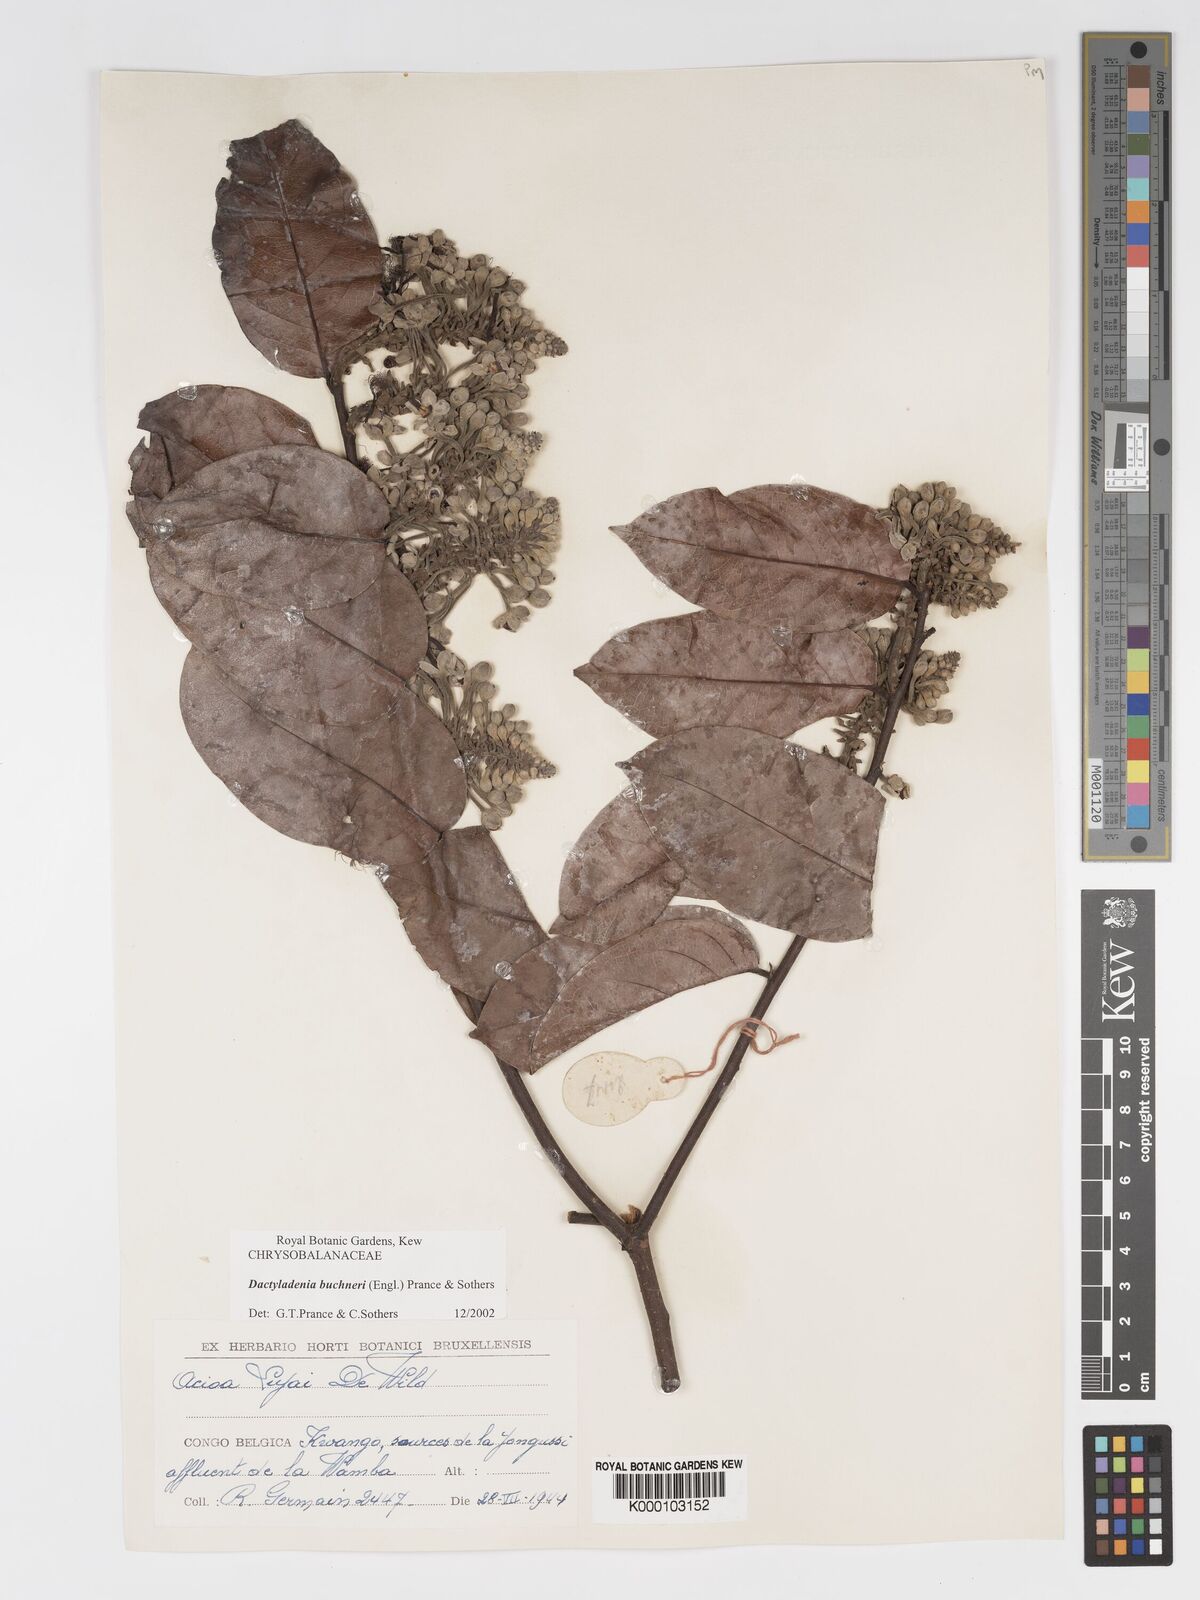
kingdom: Plantae
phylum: Tracheophyta
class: Magnoliopsida
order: Malpighiales
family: Chrysobalanaceae
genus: Dactyladenia
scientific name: Dactyladenia buchneri
